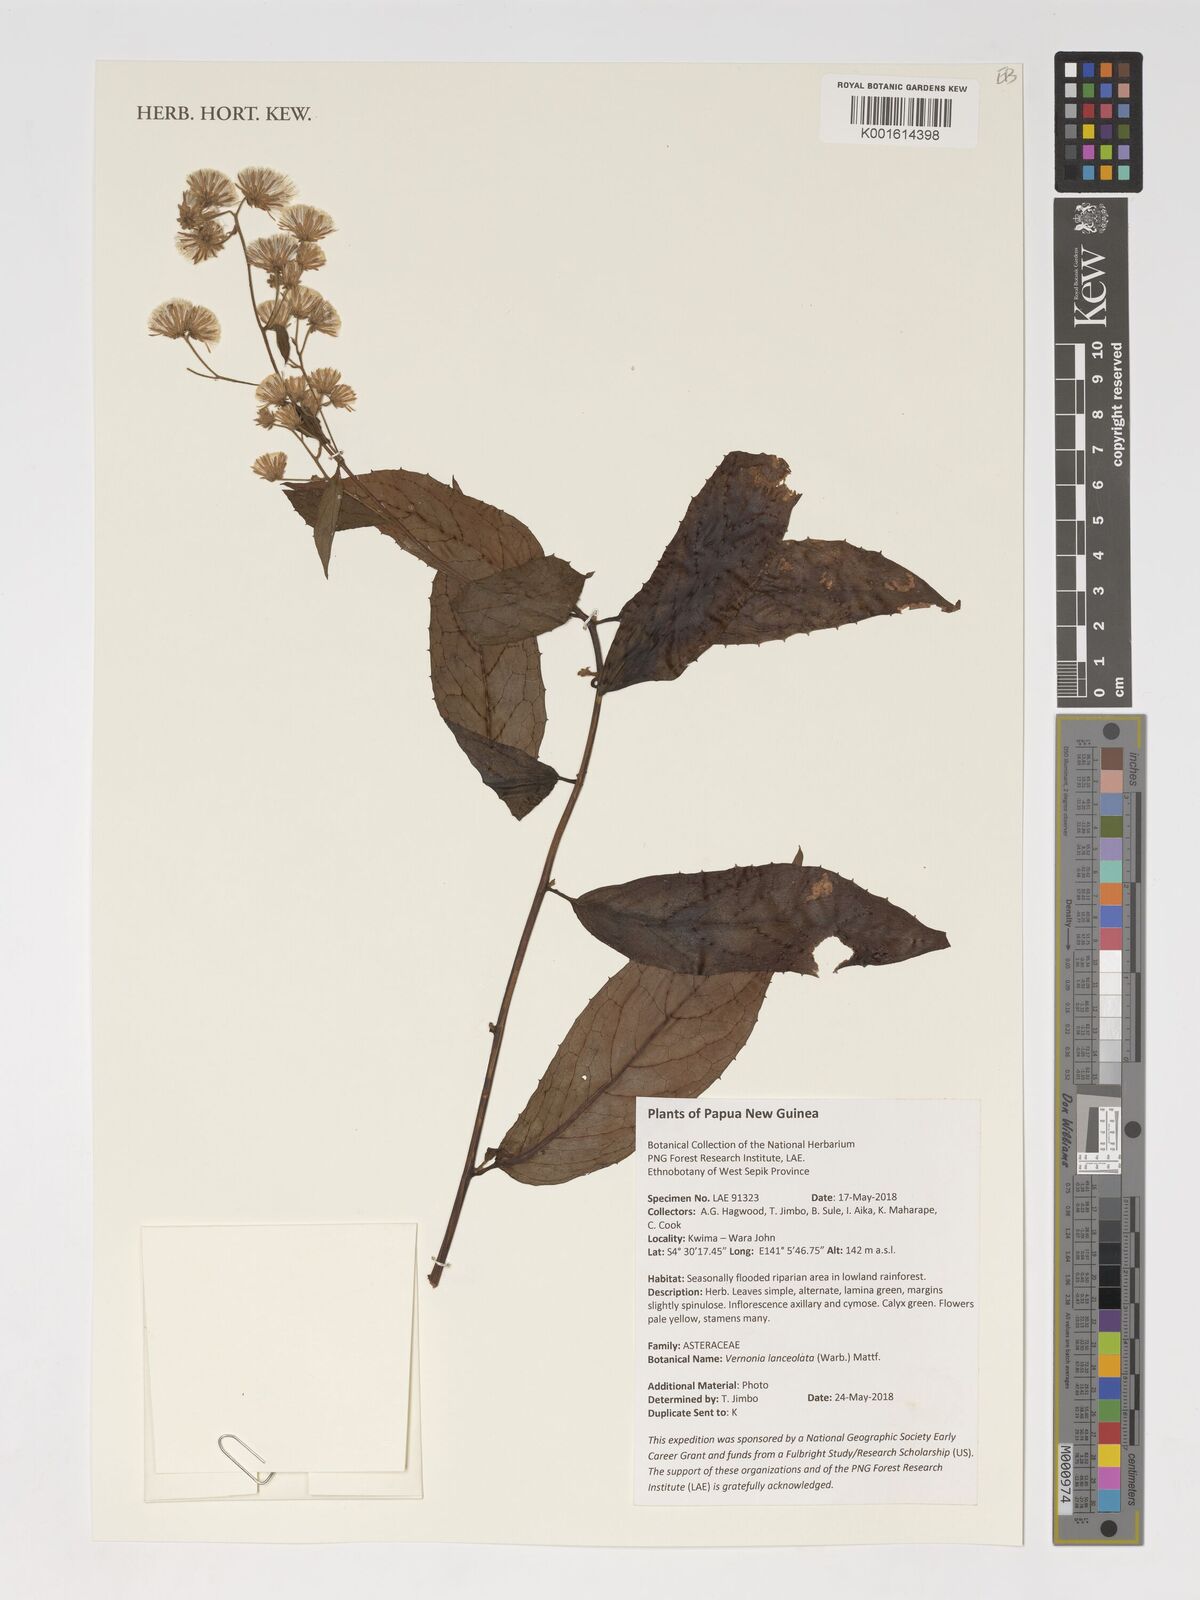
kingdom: Plantae
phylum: Tracheophyta
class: Magnoliopsida
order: Asterales
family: Asteraceae
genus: Vernonia
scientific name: Vernonia lanceolata
